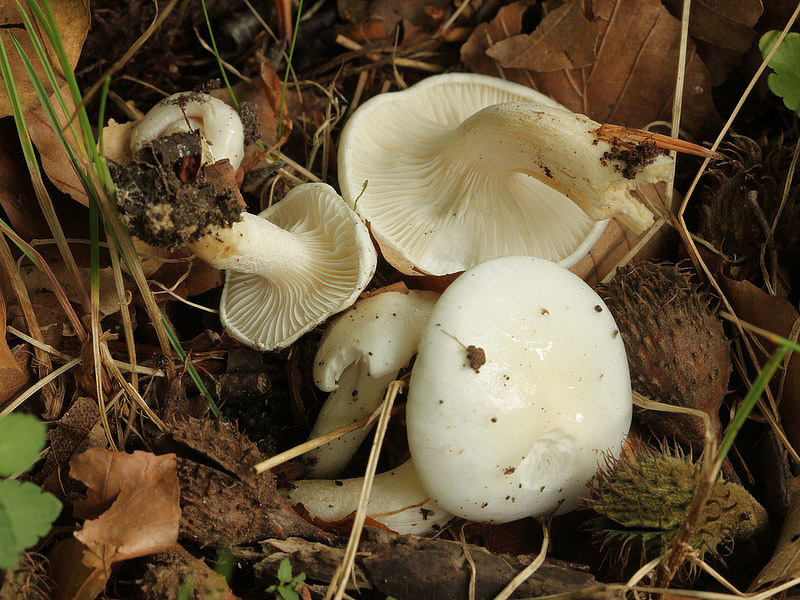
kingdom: Fungi
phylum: Basidiomycota
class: Agaricomycetes
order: Agaricales
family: Hygrophoraceae
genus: Hygrophorus
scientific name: Hygrophorus eburneus
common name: elfenbens-sneglehat
